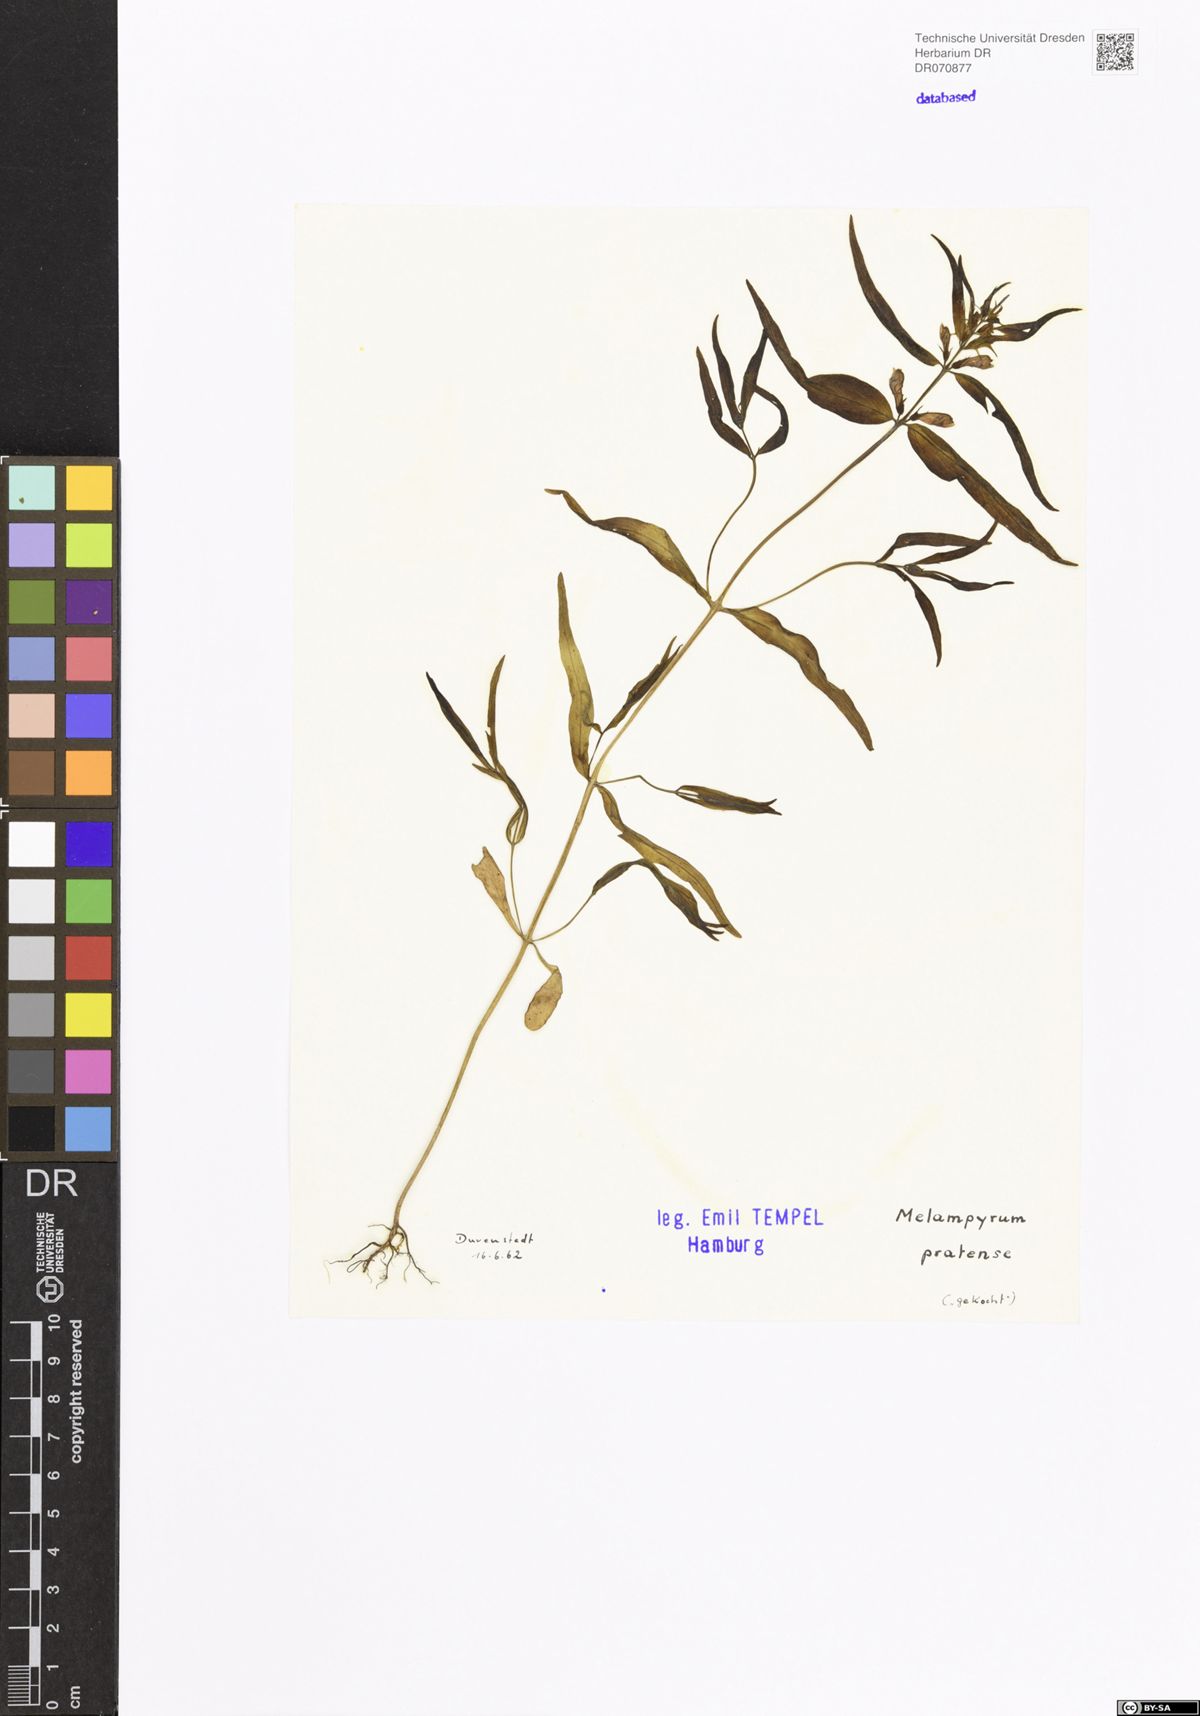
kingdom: Plantae
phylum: Tracheophyta
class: Magnoliopsida
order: Lamiales
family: Orobanchaceae
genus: Melampyrum
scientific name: Melampyrum pratense
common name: Common cow-wheat
